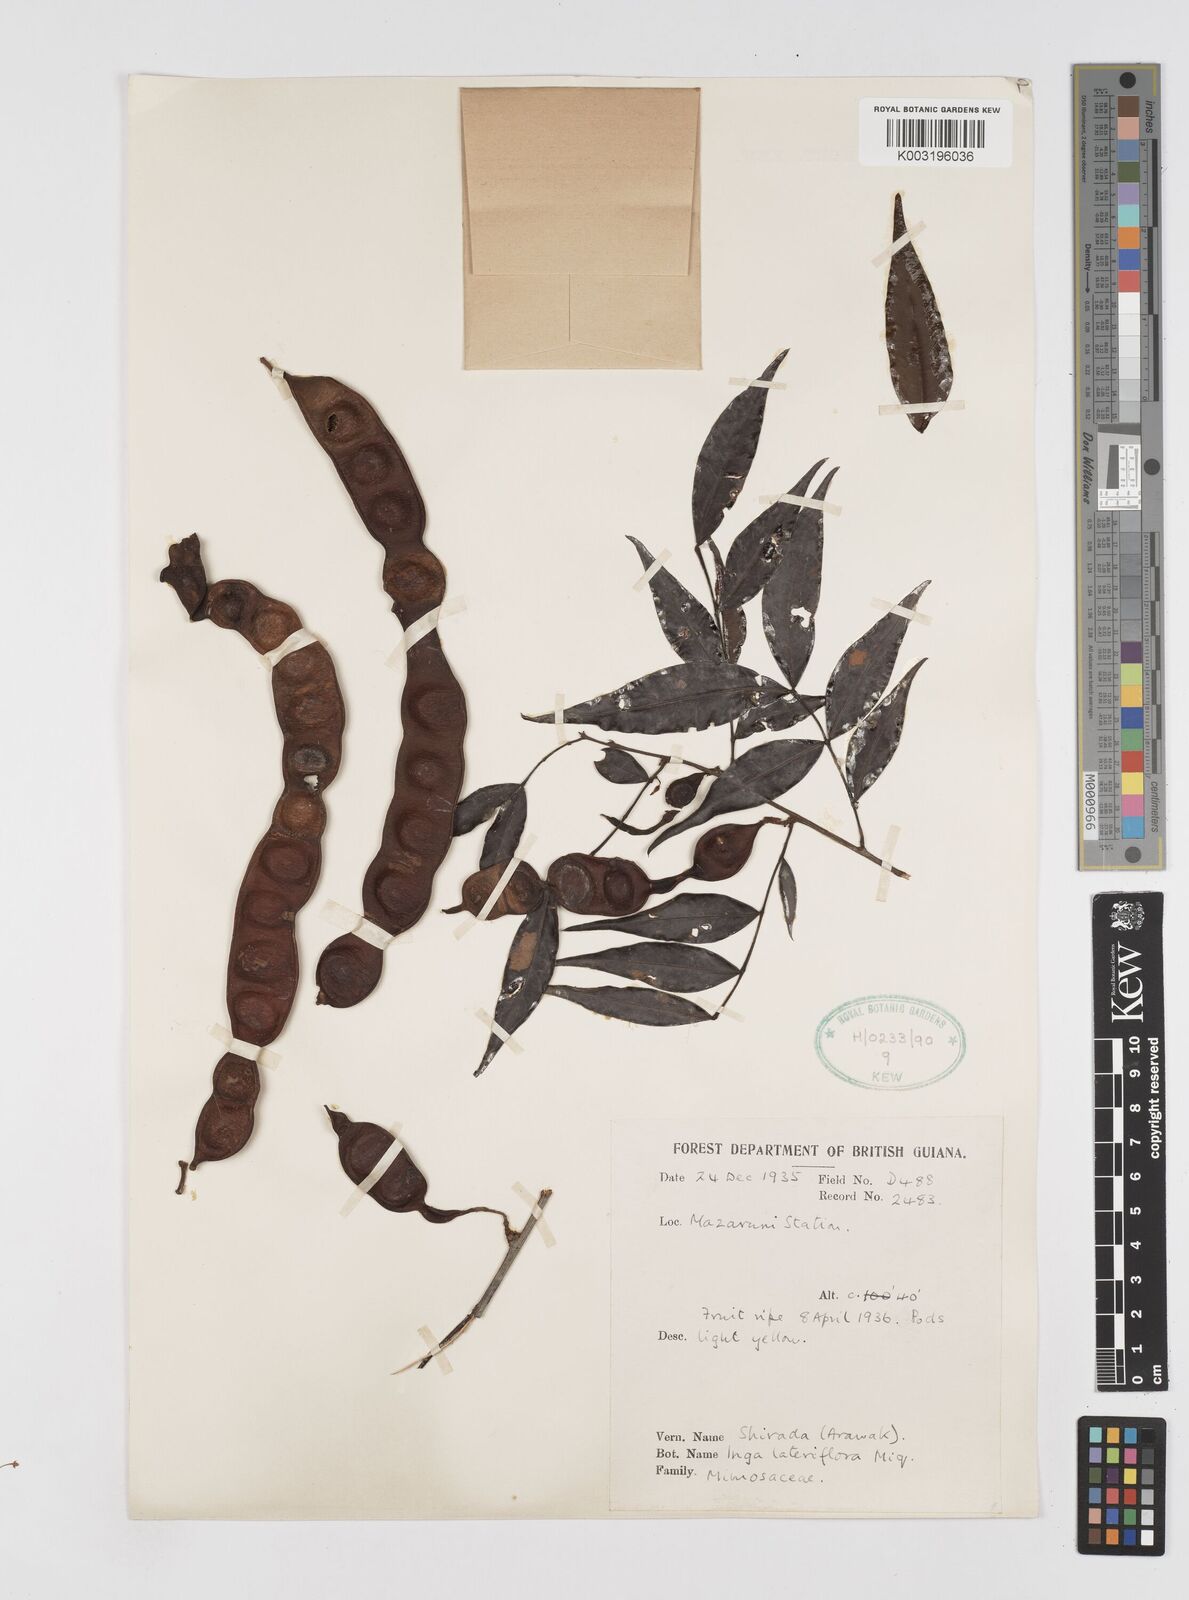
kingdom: Plantae
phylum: Tracheophyta
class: Magnoliopsida
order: Fabales
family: Fabaceae
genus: Inga
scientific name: Inga lateriflora
